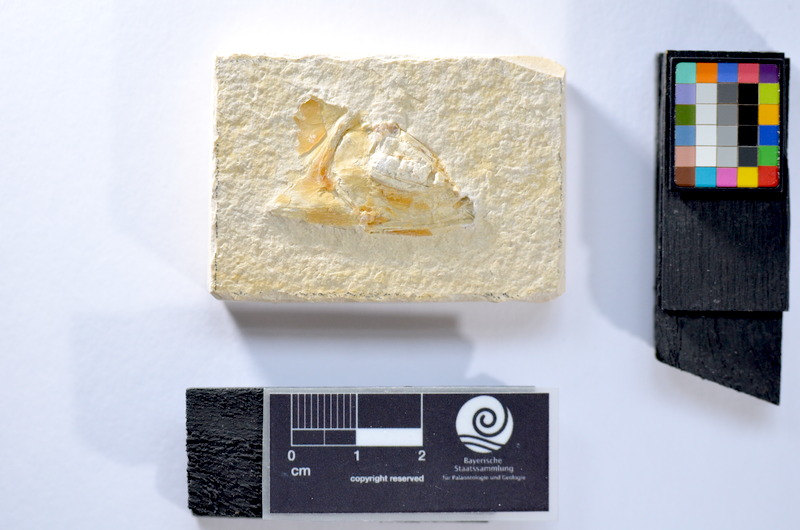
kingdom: Animalia
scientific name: Animalia
